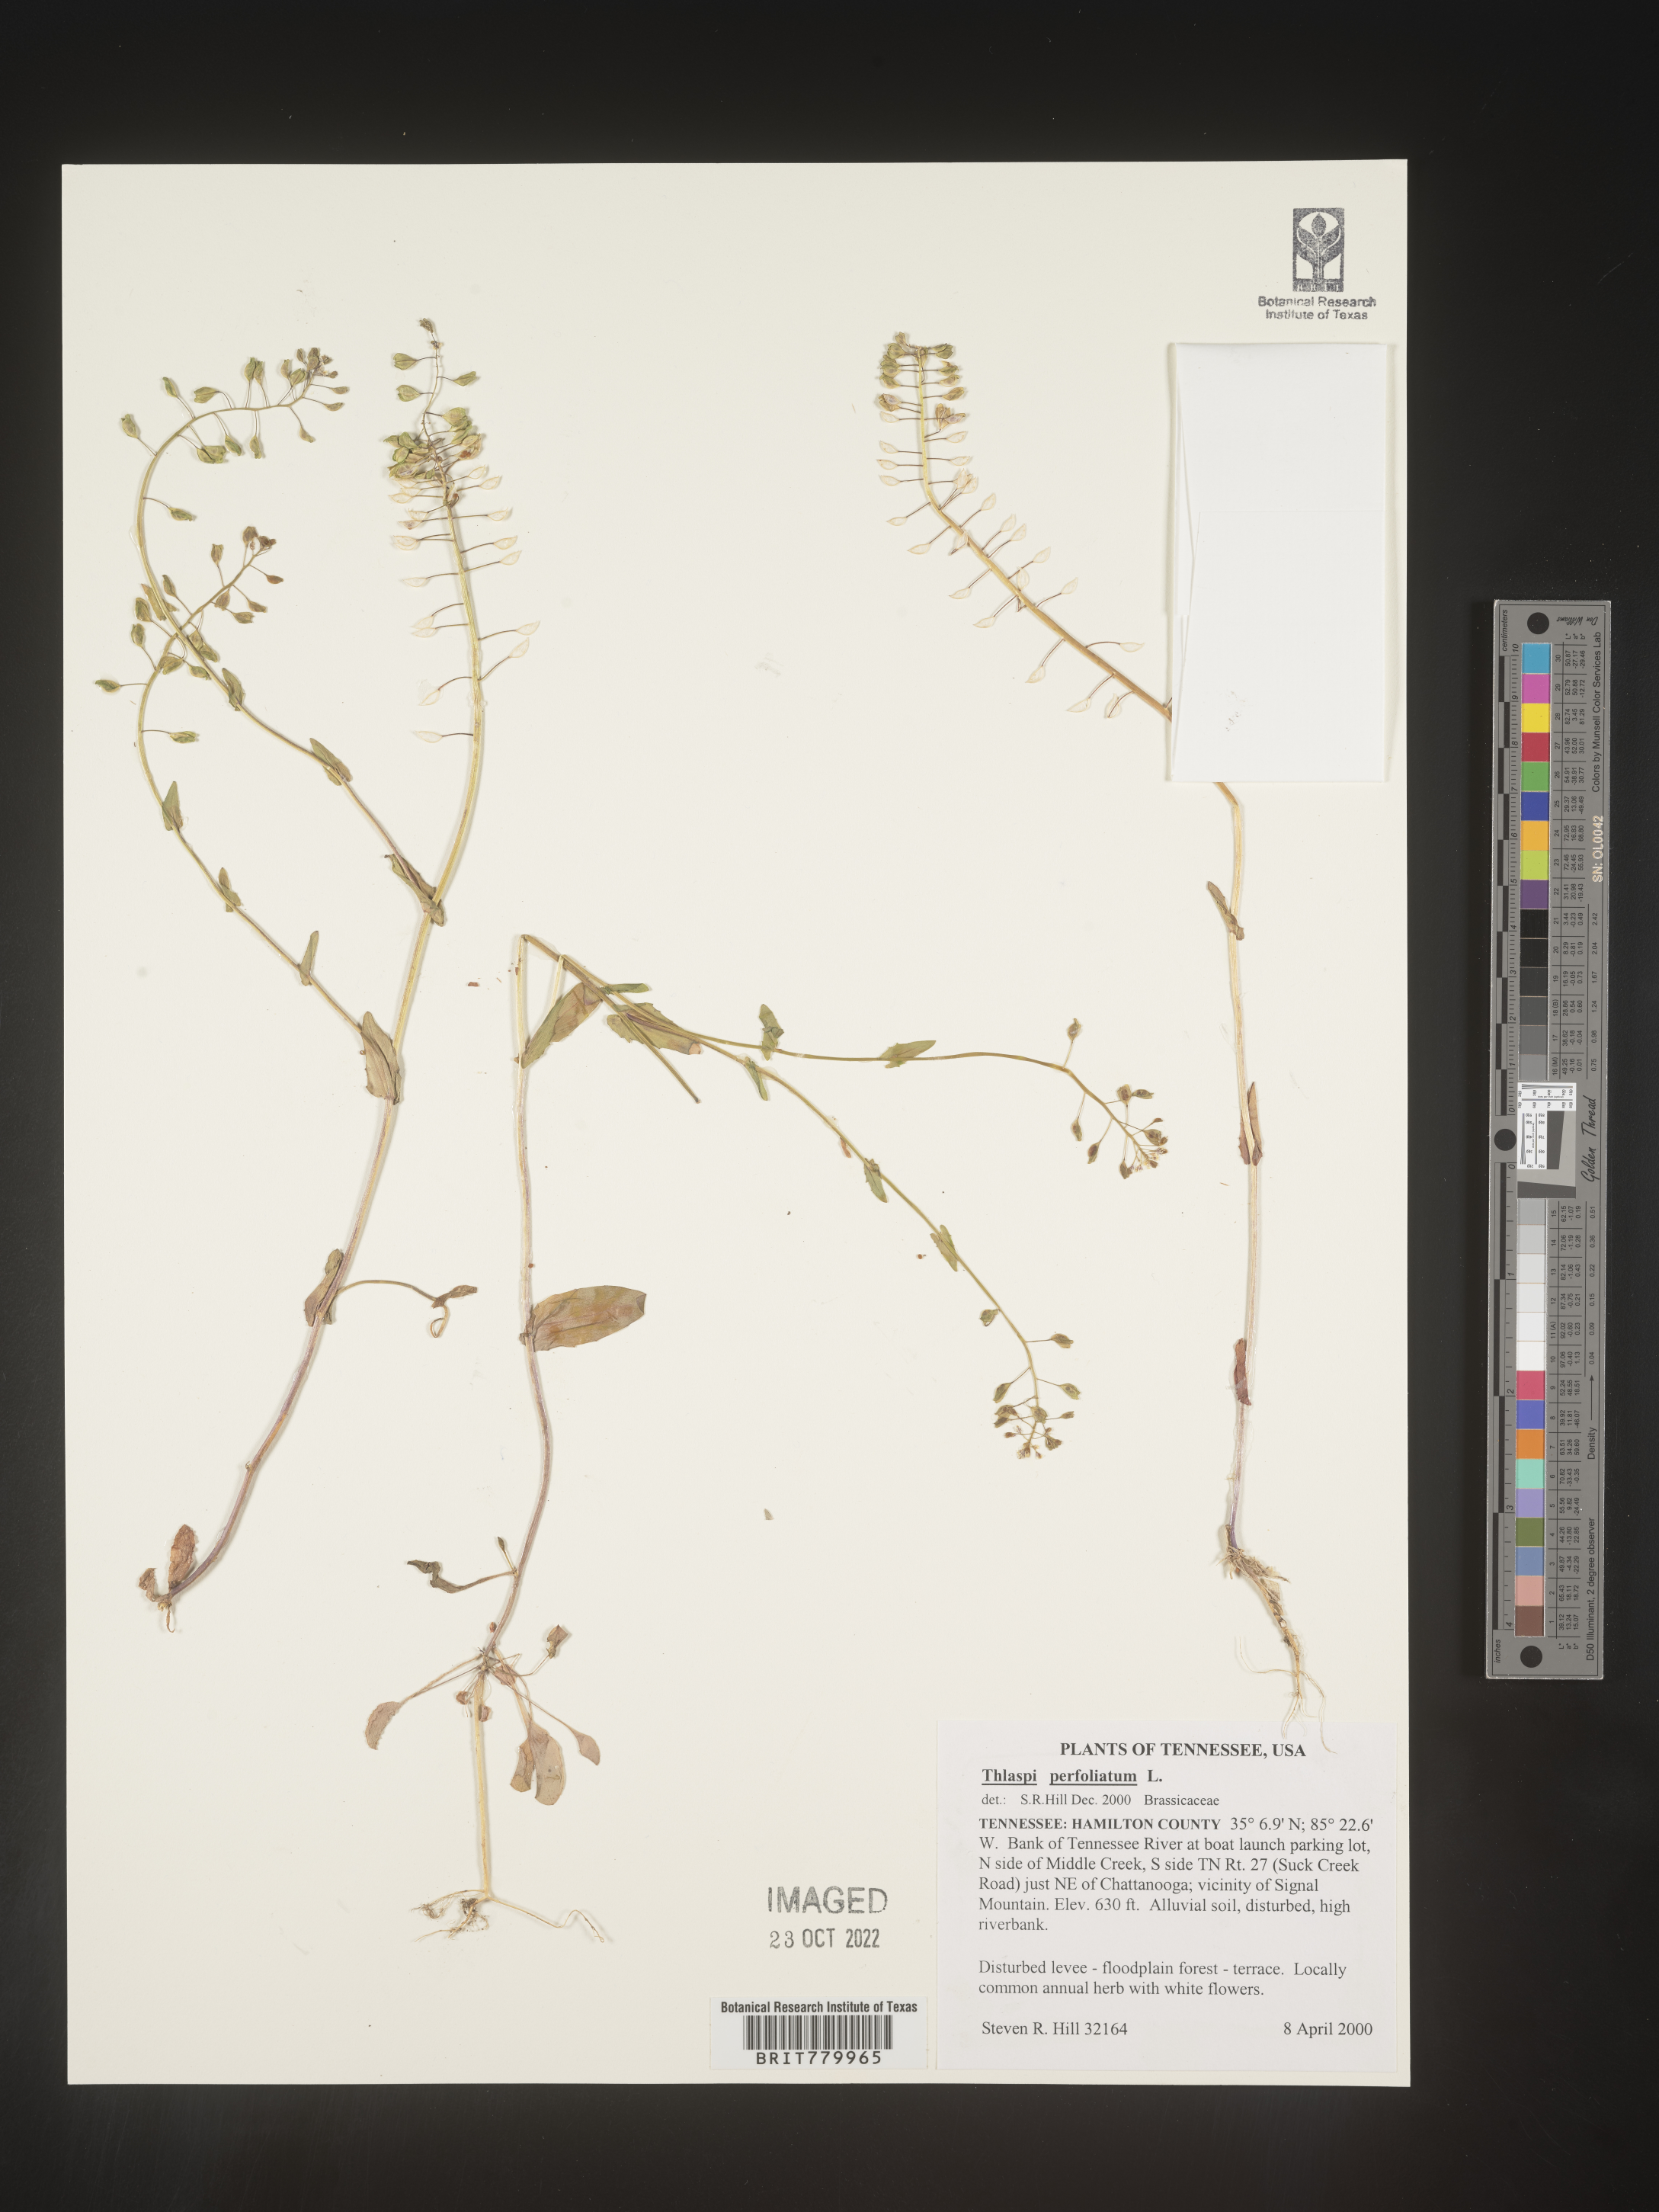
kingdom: Plantae
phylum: Tracheophyta
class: Magnoliopsida
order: Brassicales
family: Brassicaceae
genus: Thlaspi
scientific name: Thlaspi
